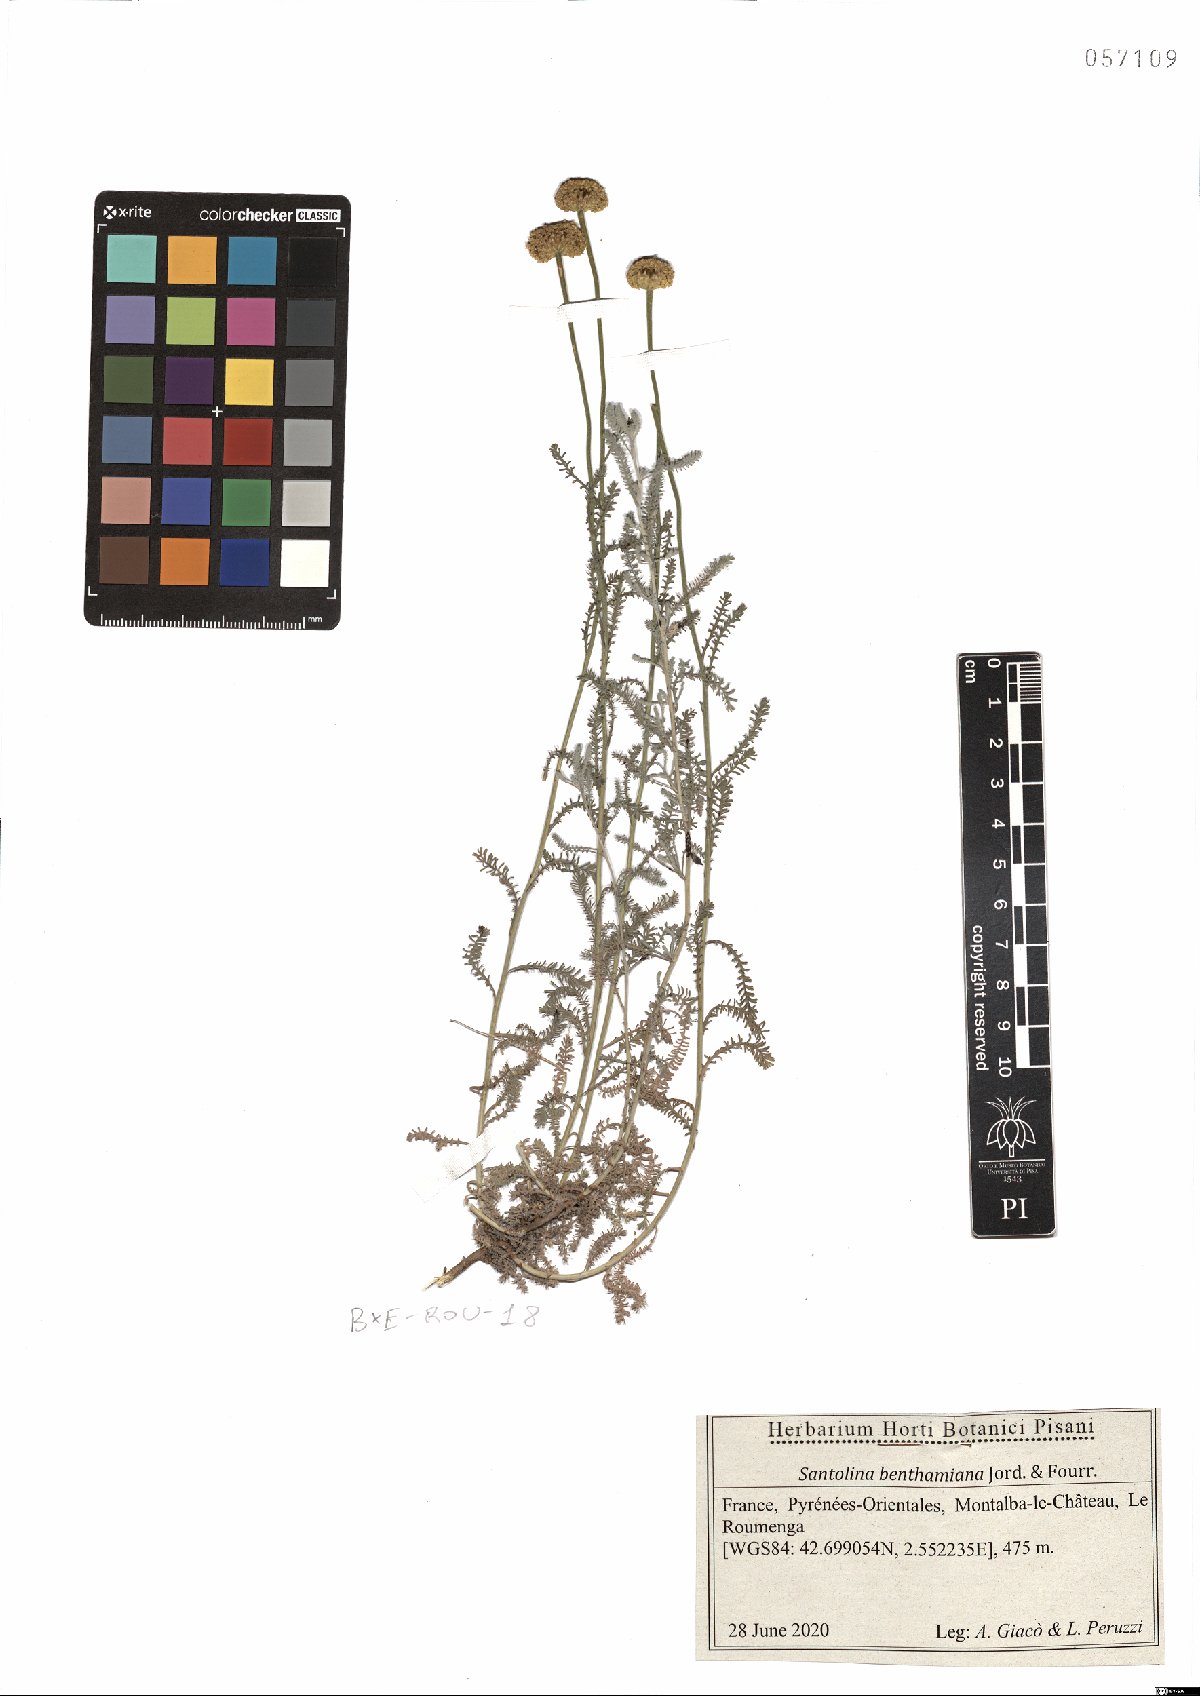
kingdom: Plantae
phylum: Tracheophyta
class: Magnoliopsida
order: Asterales
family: Asteraceae
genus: Santolina
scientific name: Santolina benthamiana
